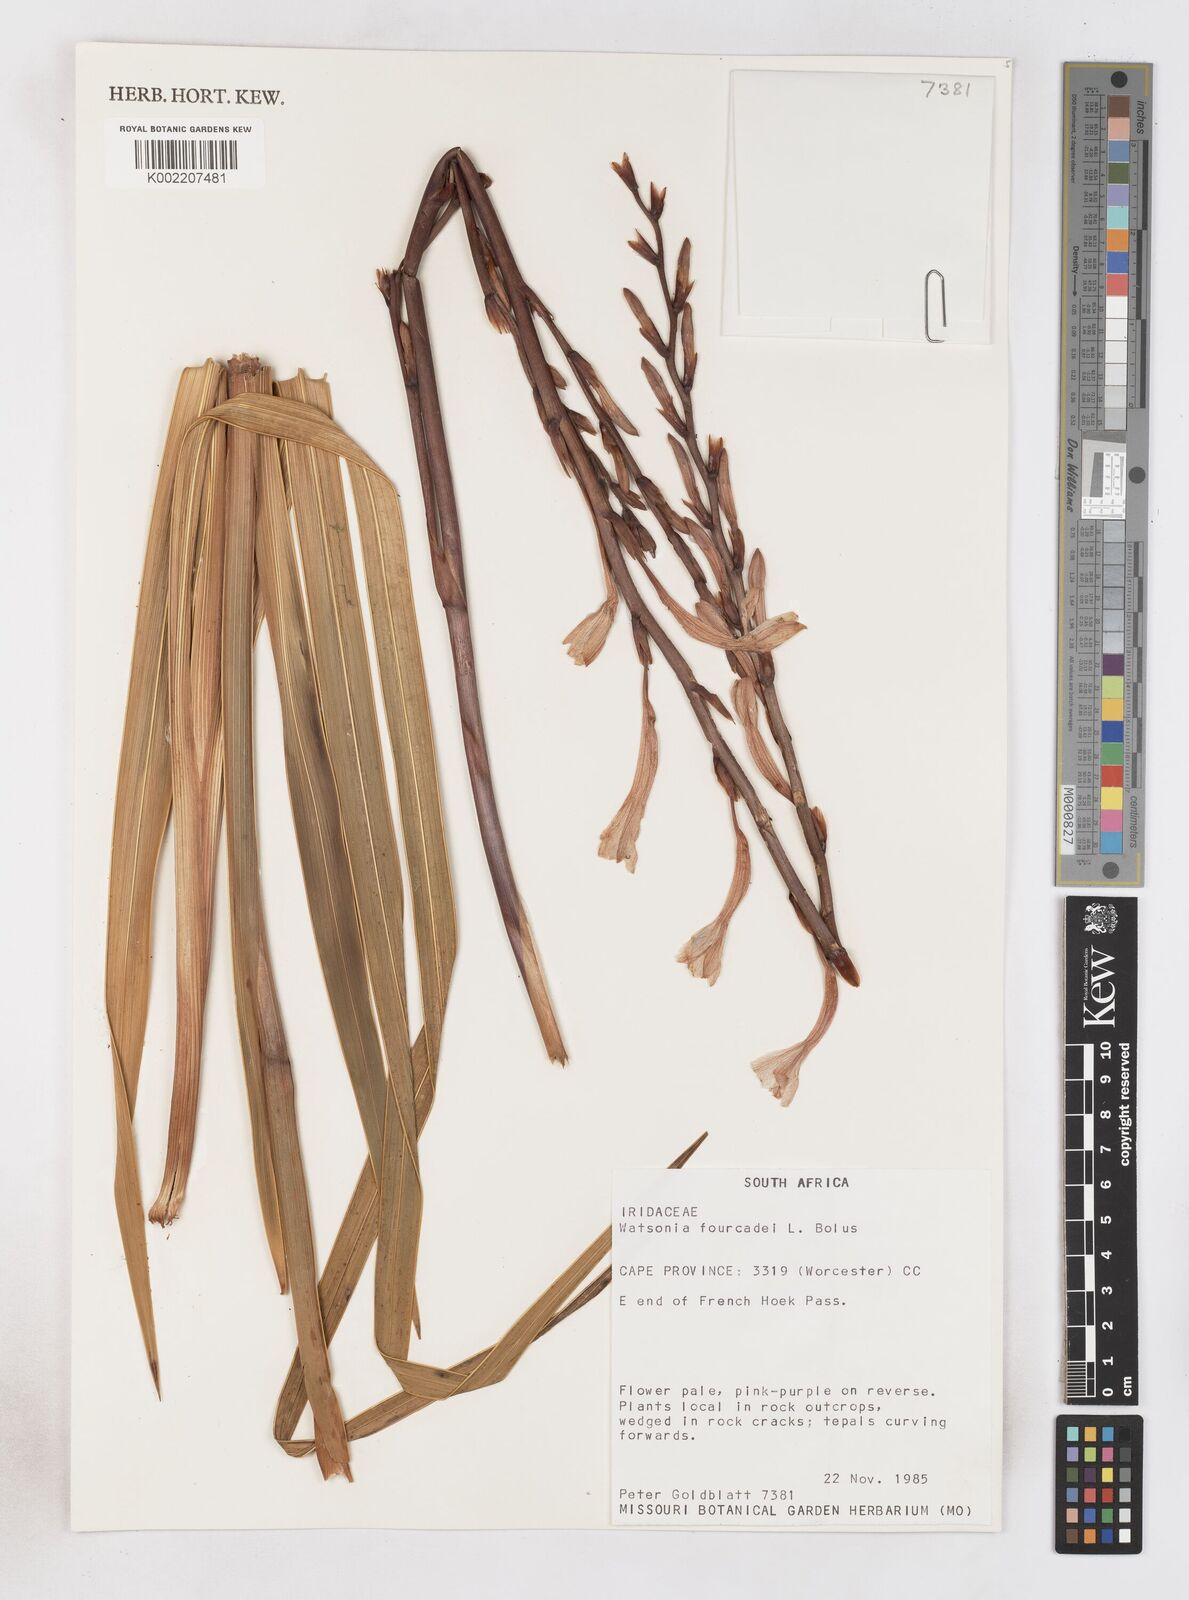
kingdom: Plantae
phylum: Tracheophyta
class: Liliopsida
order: Asparagales
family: Iridaceae
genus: Watsonia
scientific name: Watsonia fourcadei
